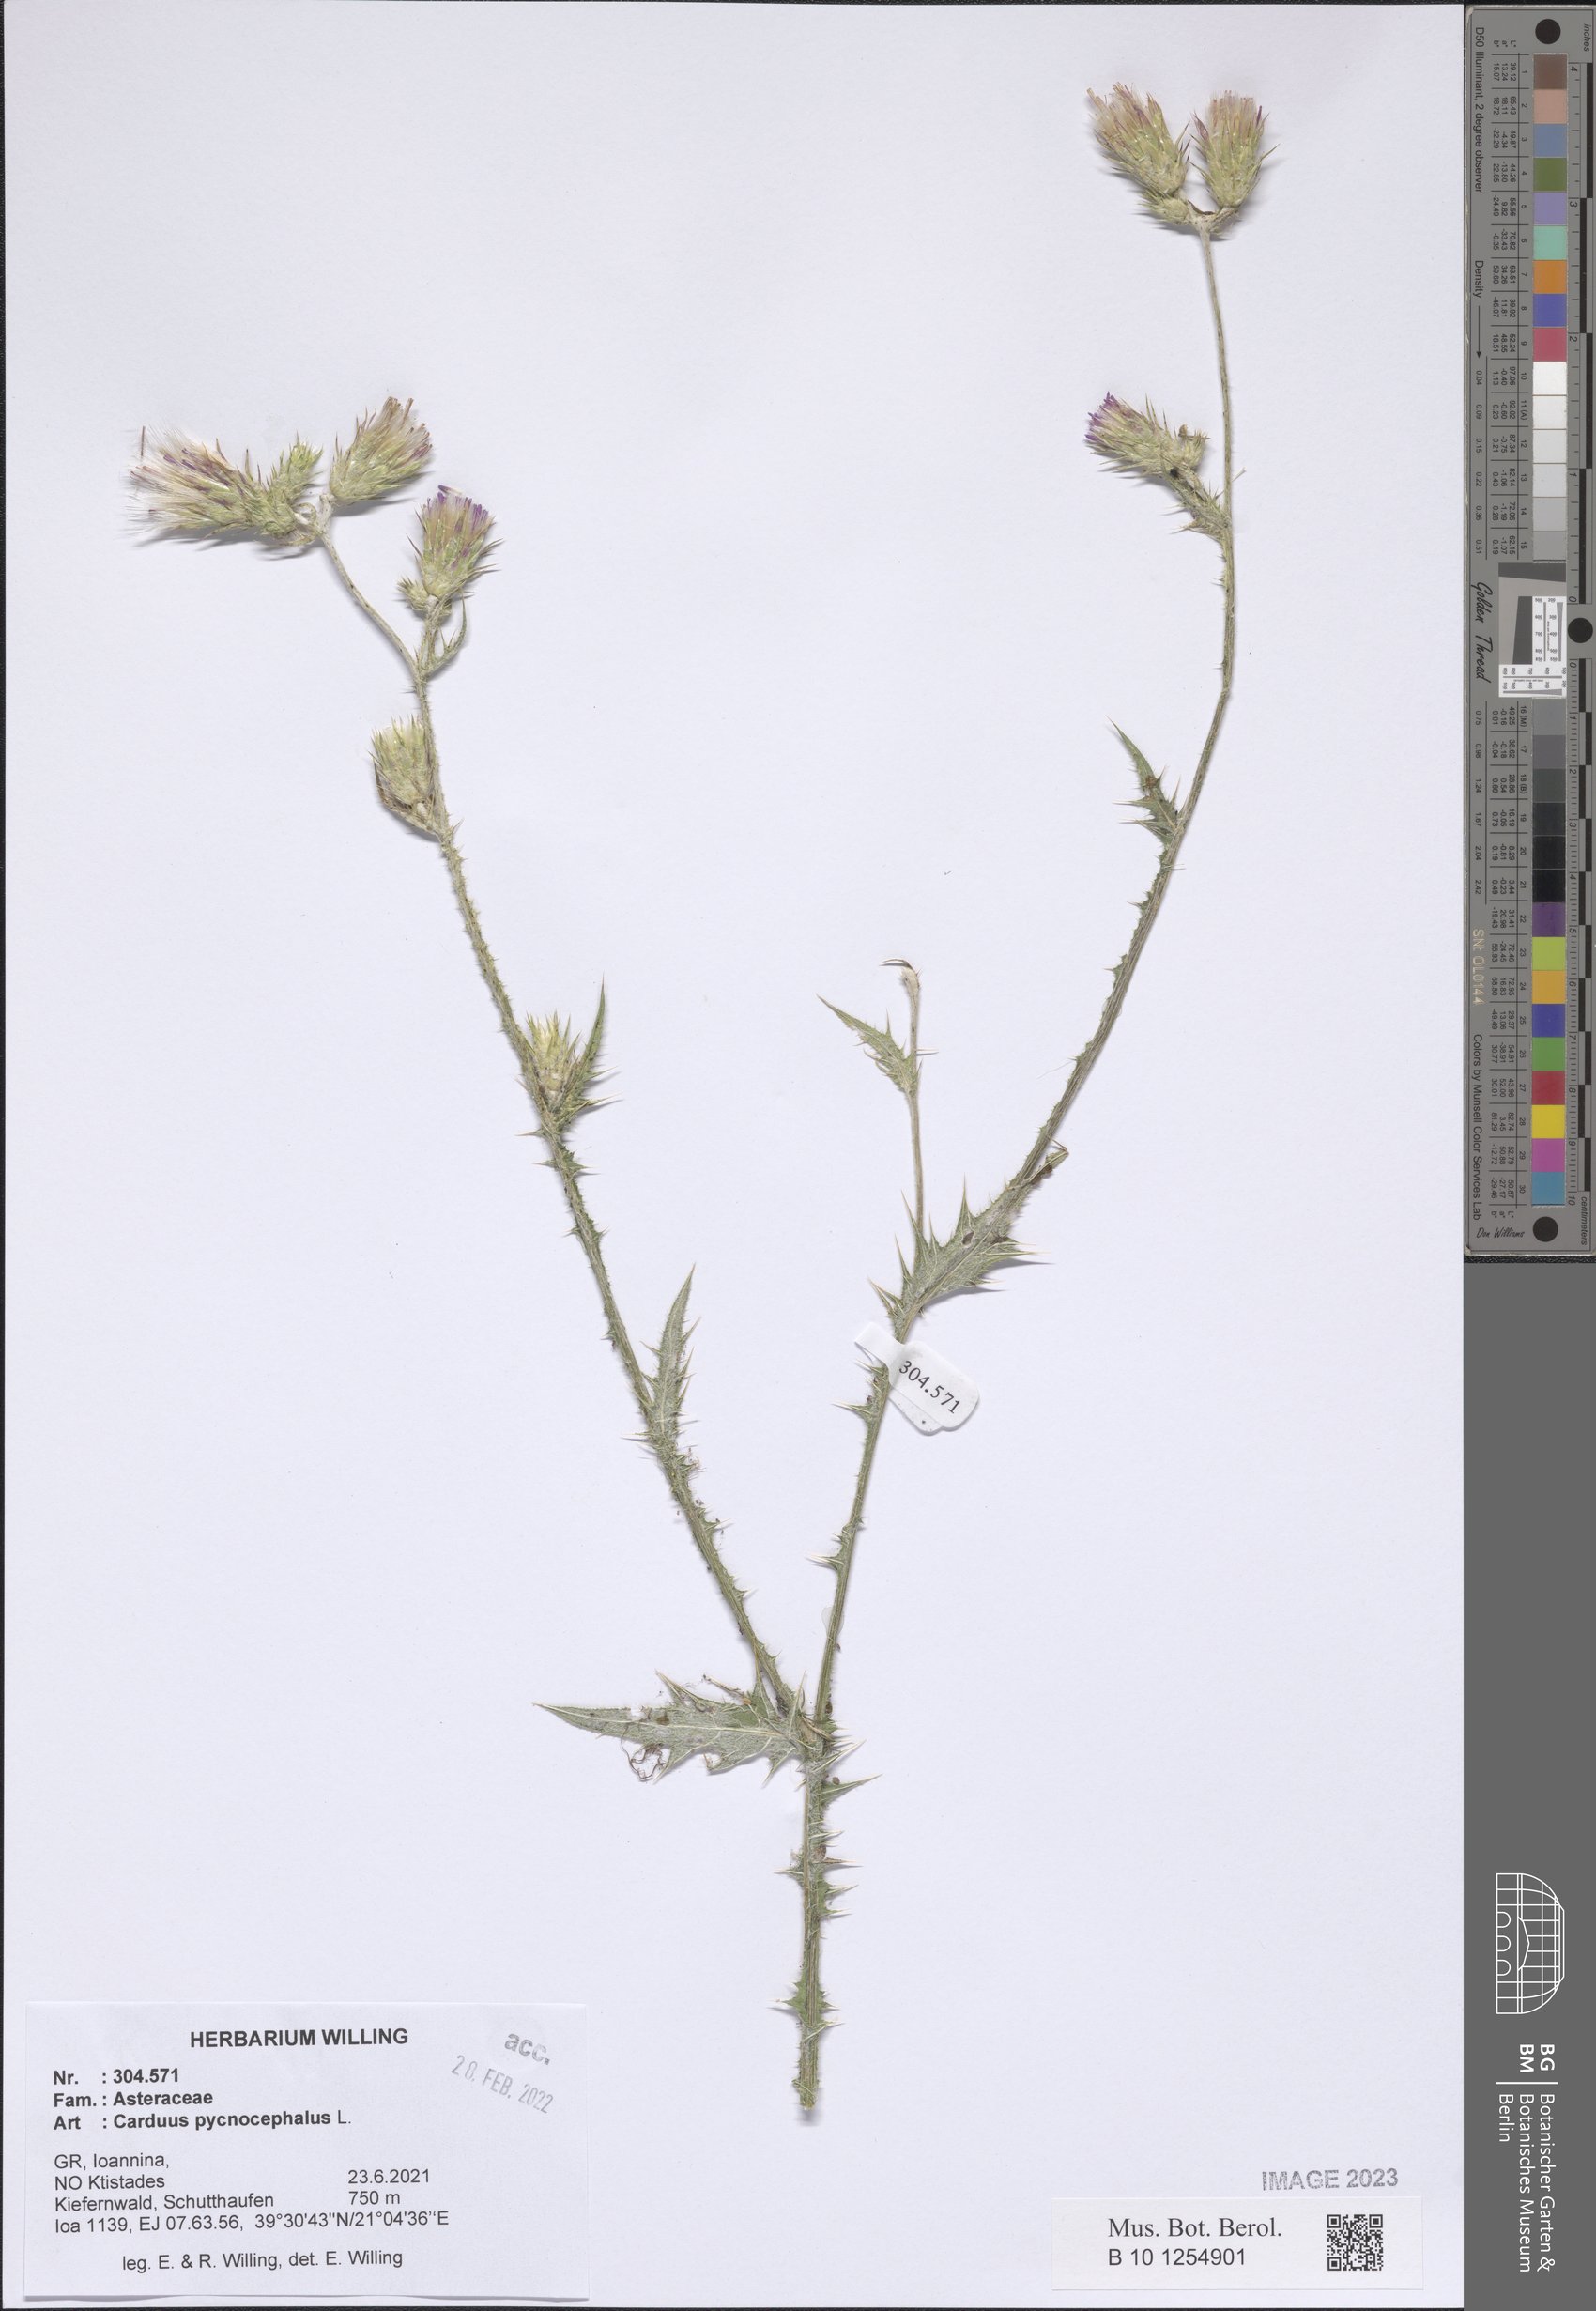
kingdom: Plantae
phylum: Tracheophyta
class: Magnoliopsida
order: Asterales
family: Asteraceae
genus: Carduus
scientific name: Carduus pycnocephalus
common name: Plymouth thistle
